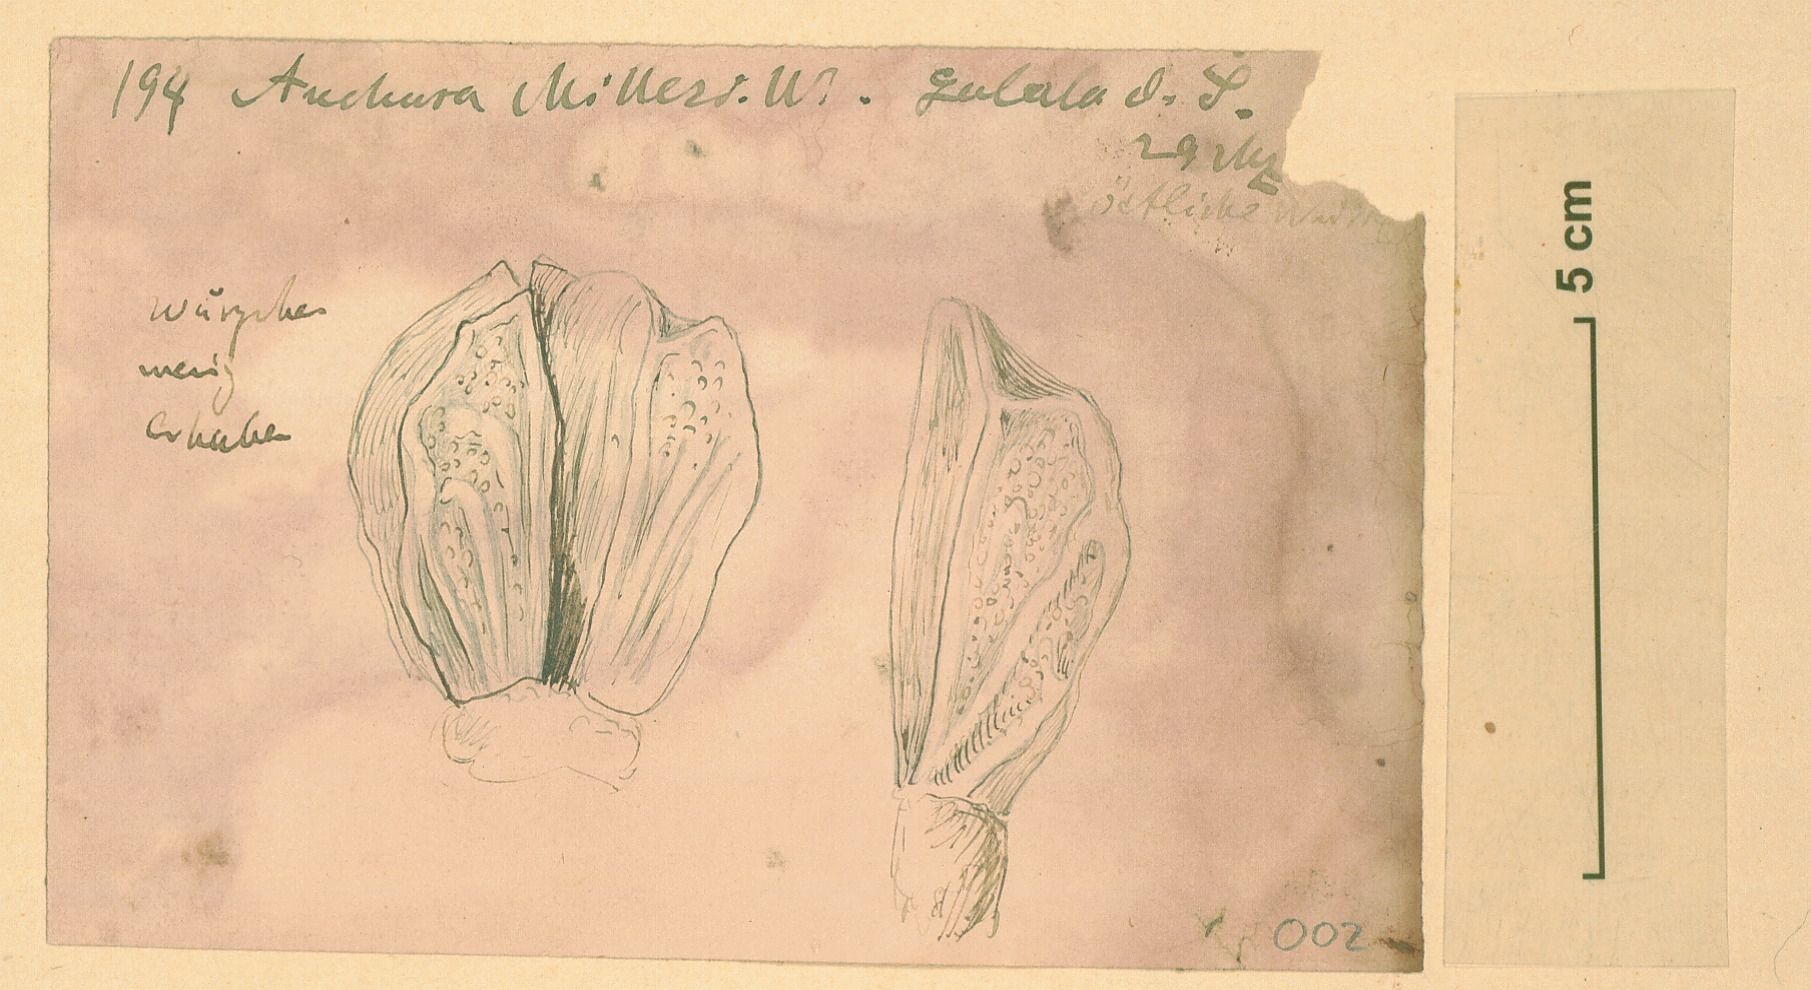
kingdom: Plantae
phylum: Tracheophyta
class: Magnoliopsida
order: Boraginales
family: Boraginaceae
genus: Anchusa
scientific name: Anchusa milleri
